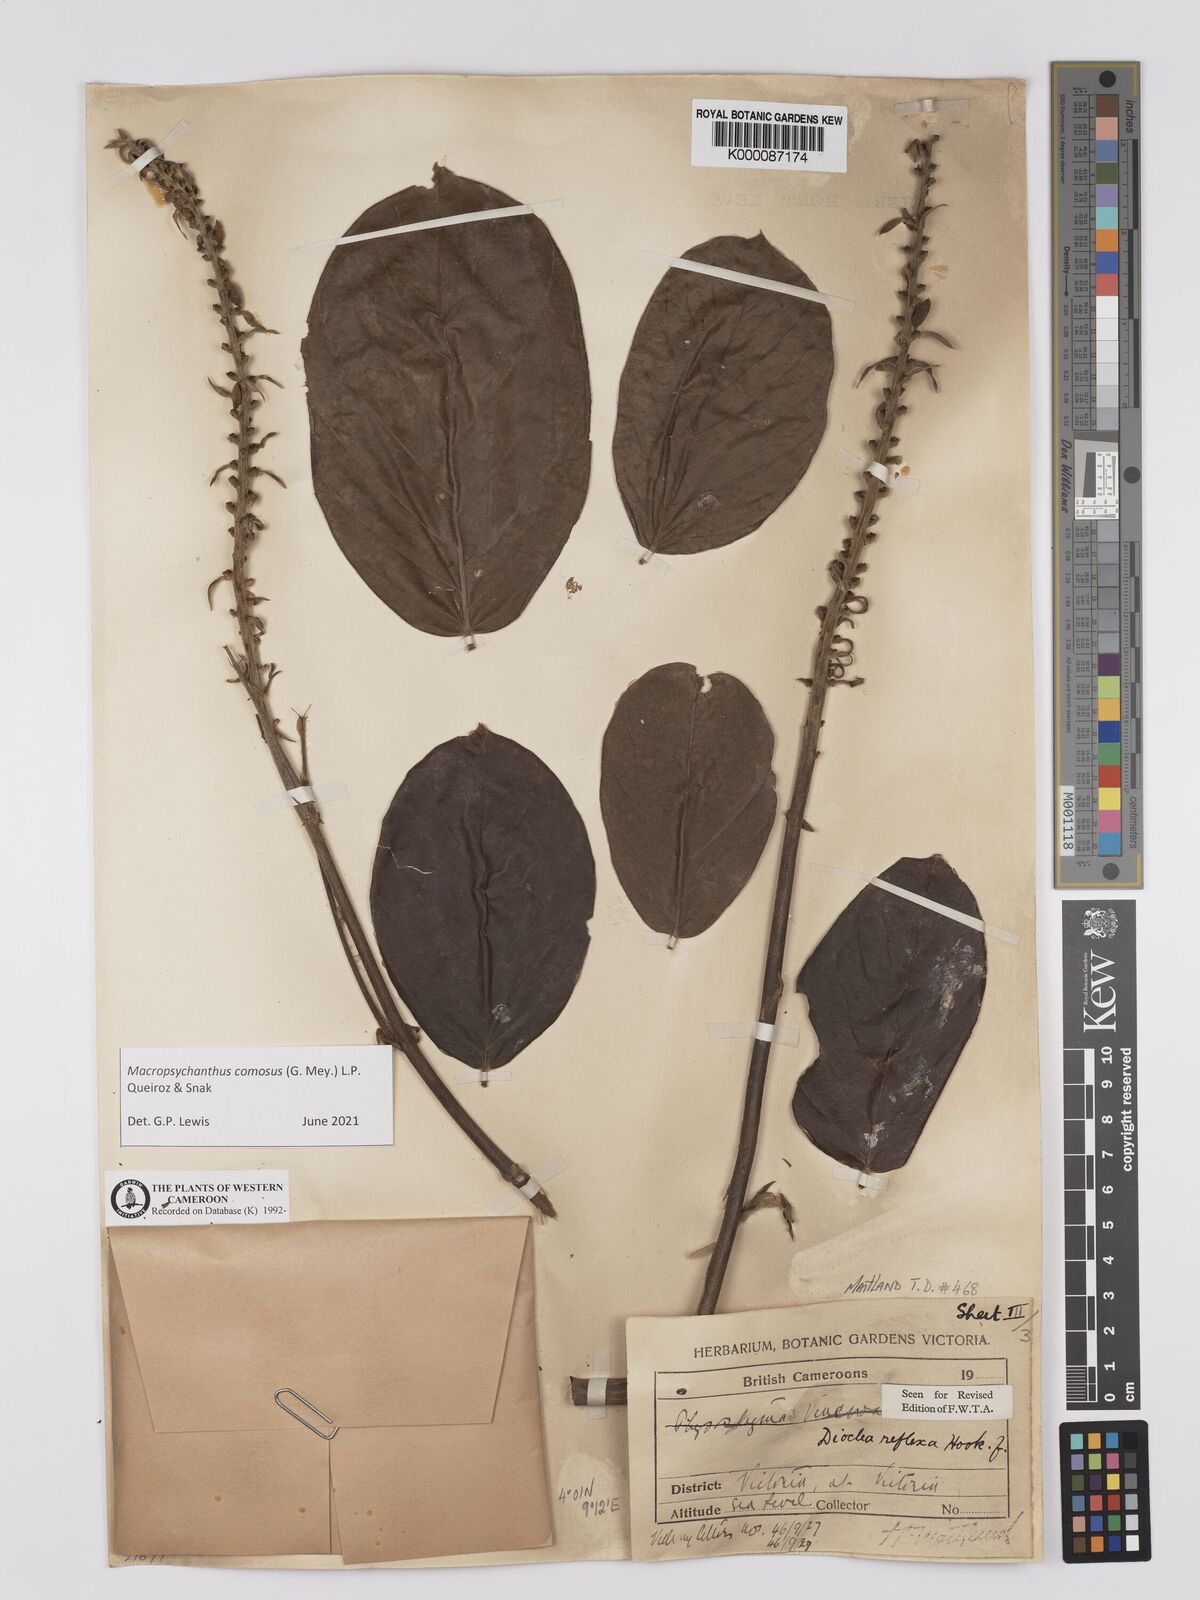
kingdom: Plantae
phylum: Tracheophyta
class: Magnoliopsida
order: Fabales
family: Fabaceae
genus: Macropsychanthus
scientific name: Macropsychanthus comosus
